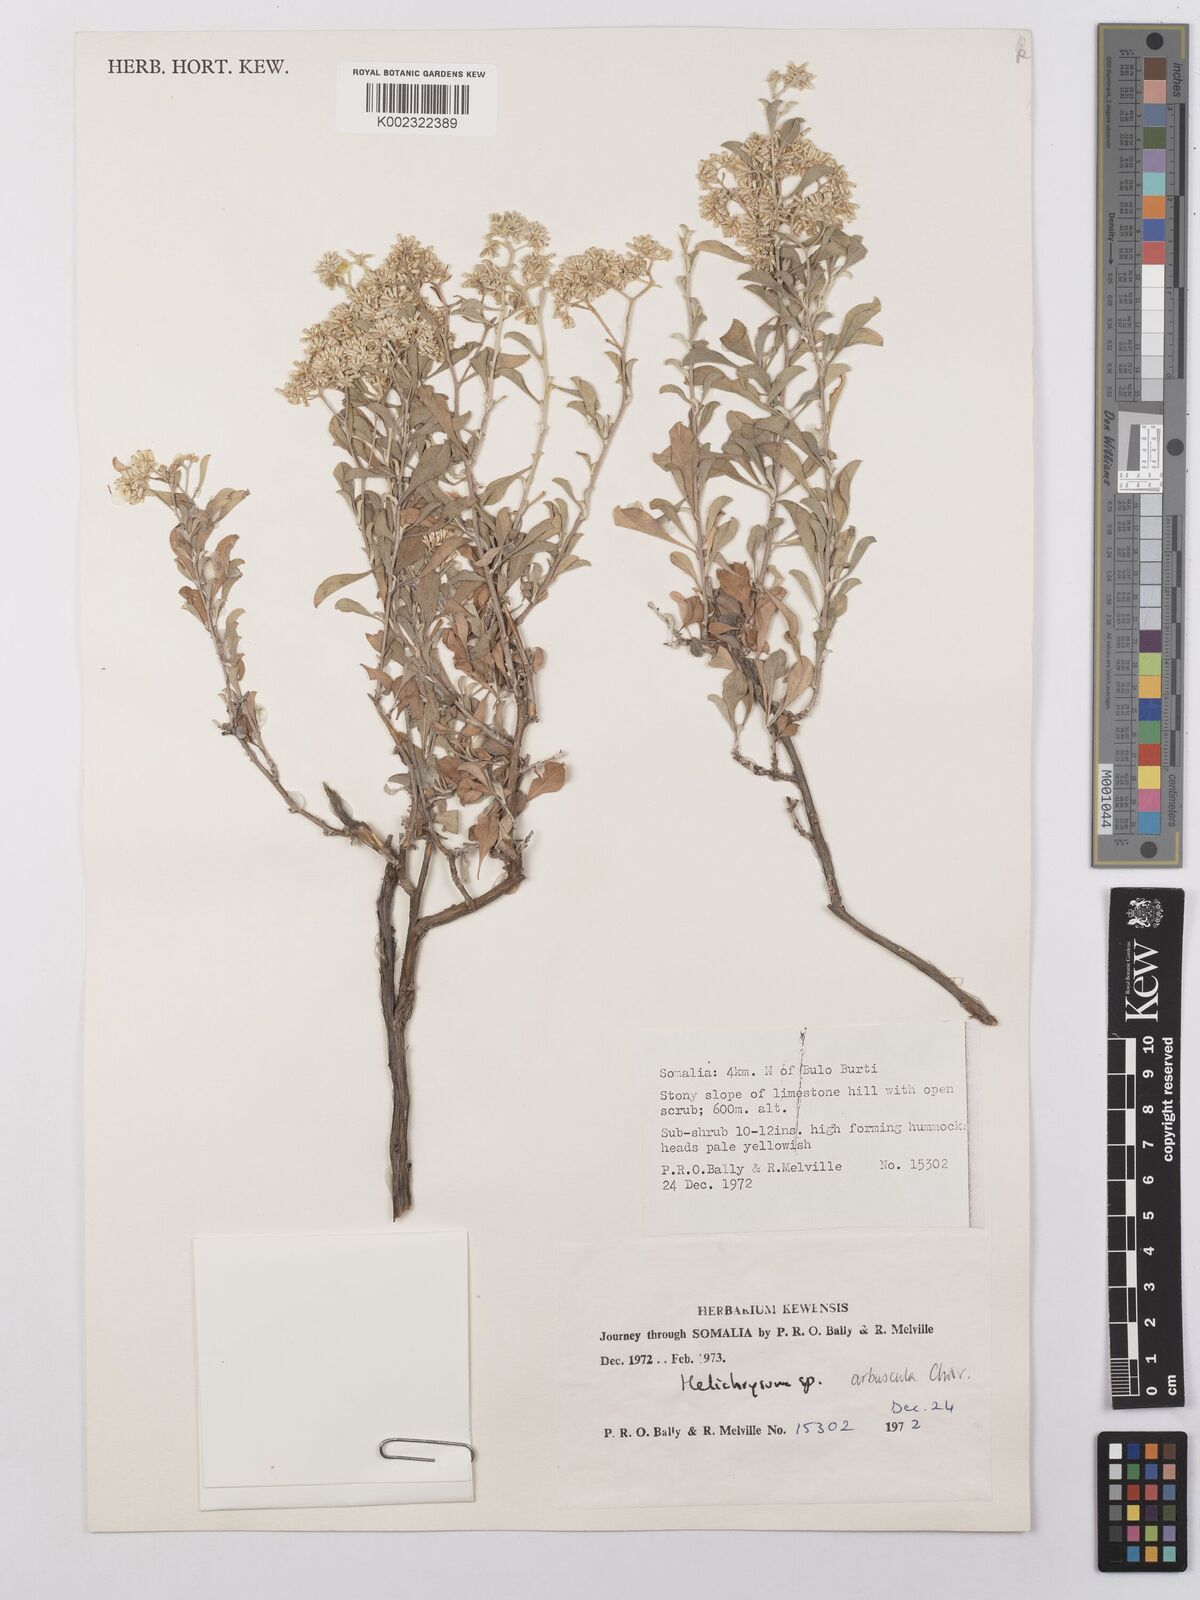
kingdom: Plantae
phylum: Tracheophyta
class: Magnoliopsida
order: Asterales
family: Asteraceae
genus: Helichrysum
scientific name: Helichrysum arbuscula
